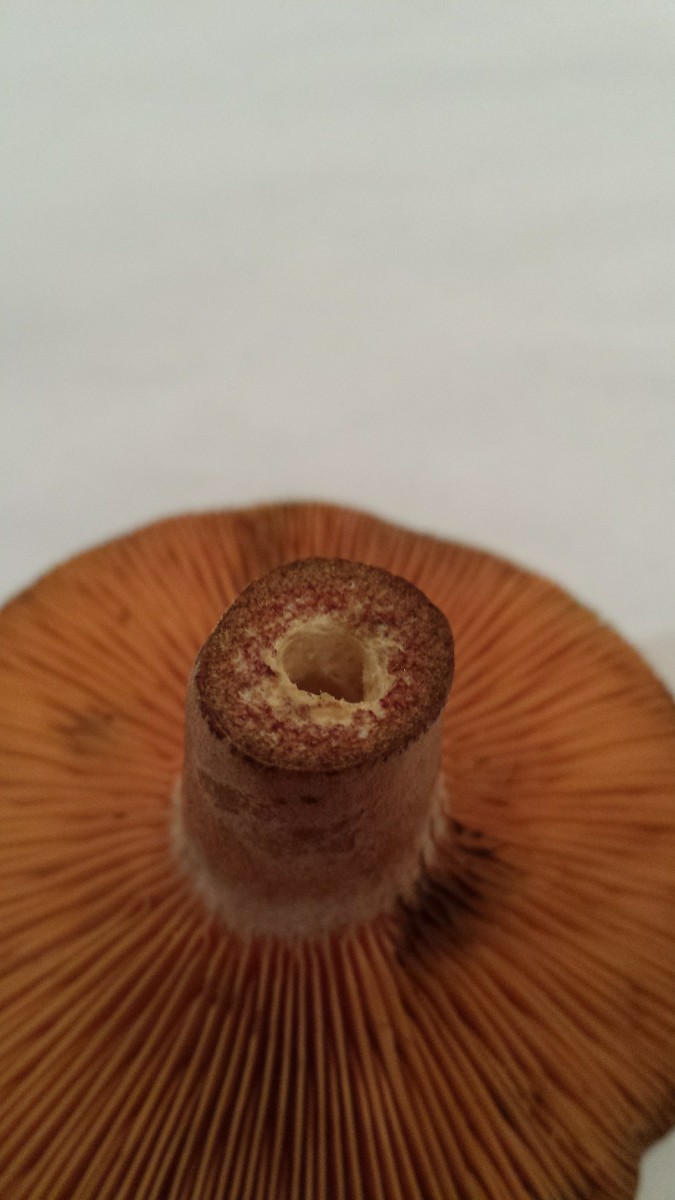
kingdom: Fungi
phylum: Basidiomycota
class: Agaricomycetes
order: Russulales
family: Russulaceae
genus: Lactarius
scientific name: Lactarius quieticolor
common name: tvefarvet mælkehat
